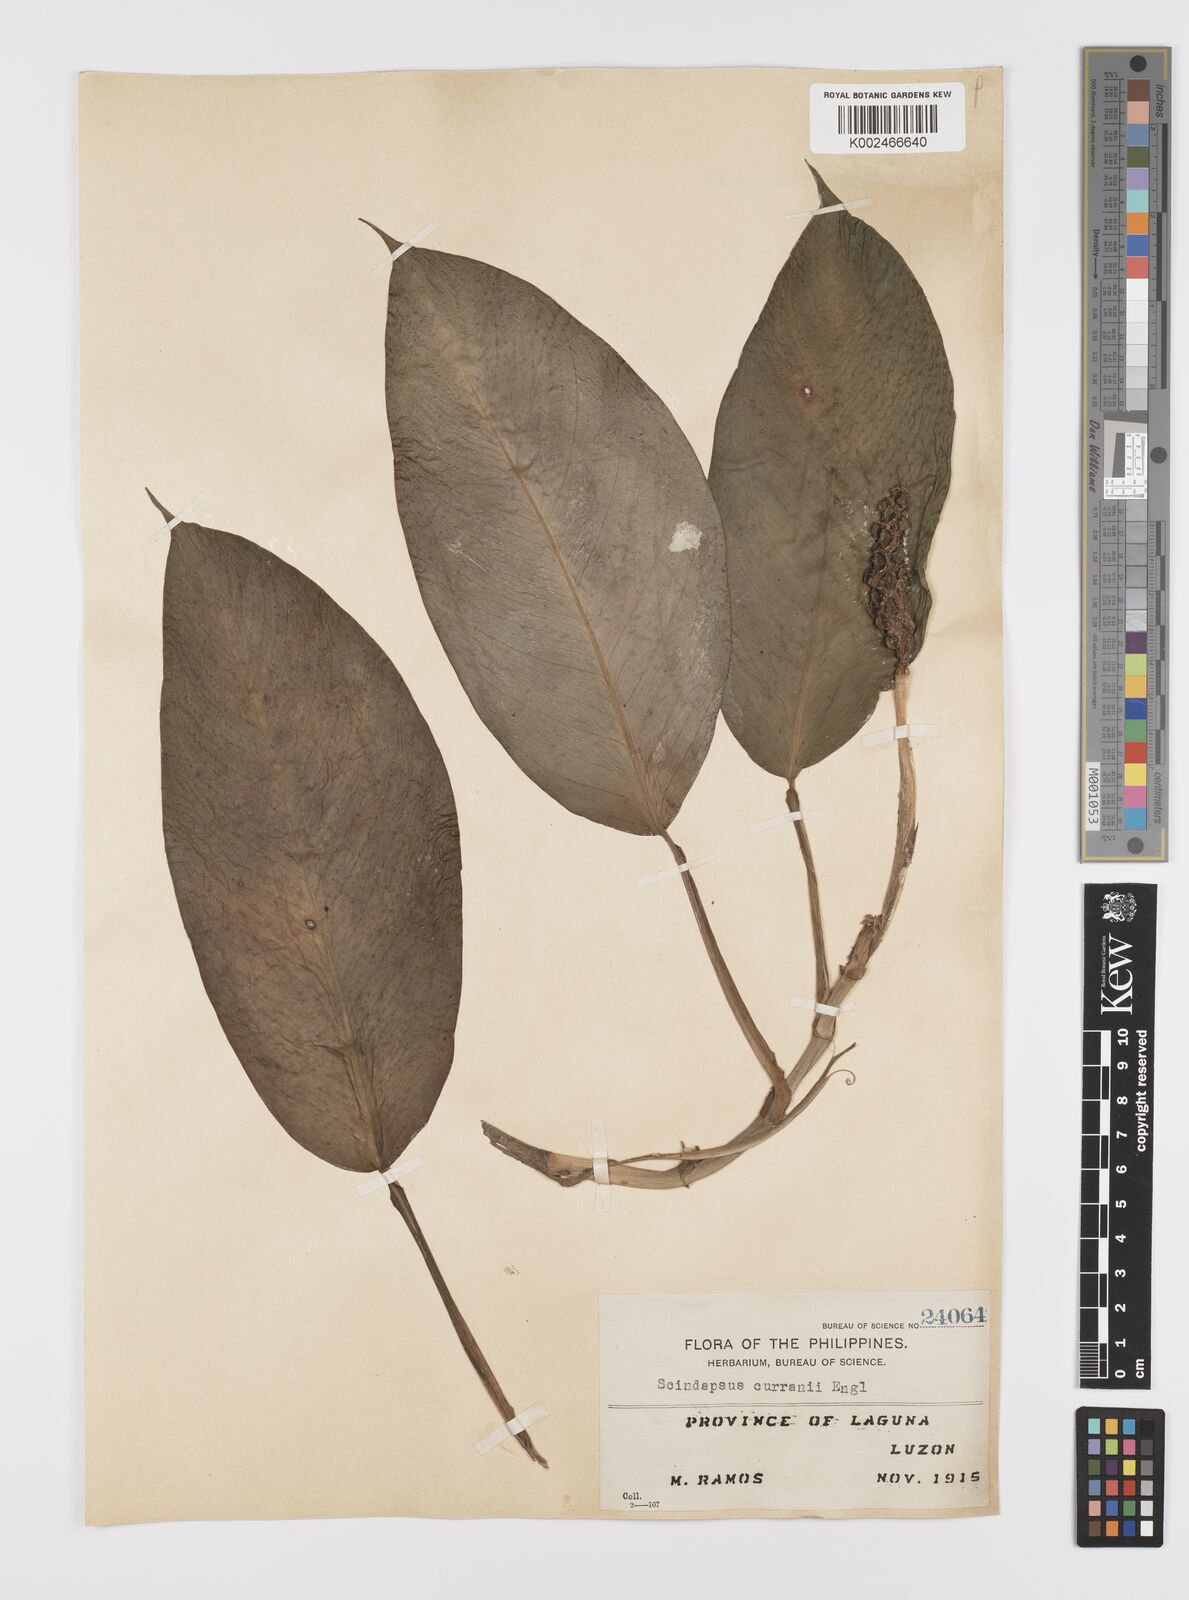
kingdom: Plantae
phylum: Tracheophyta
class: Liliopsida
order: Alismatales
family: Araceae
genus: Scindapsus
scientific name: Scindapsus curranii
